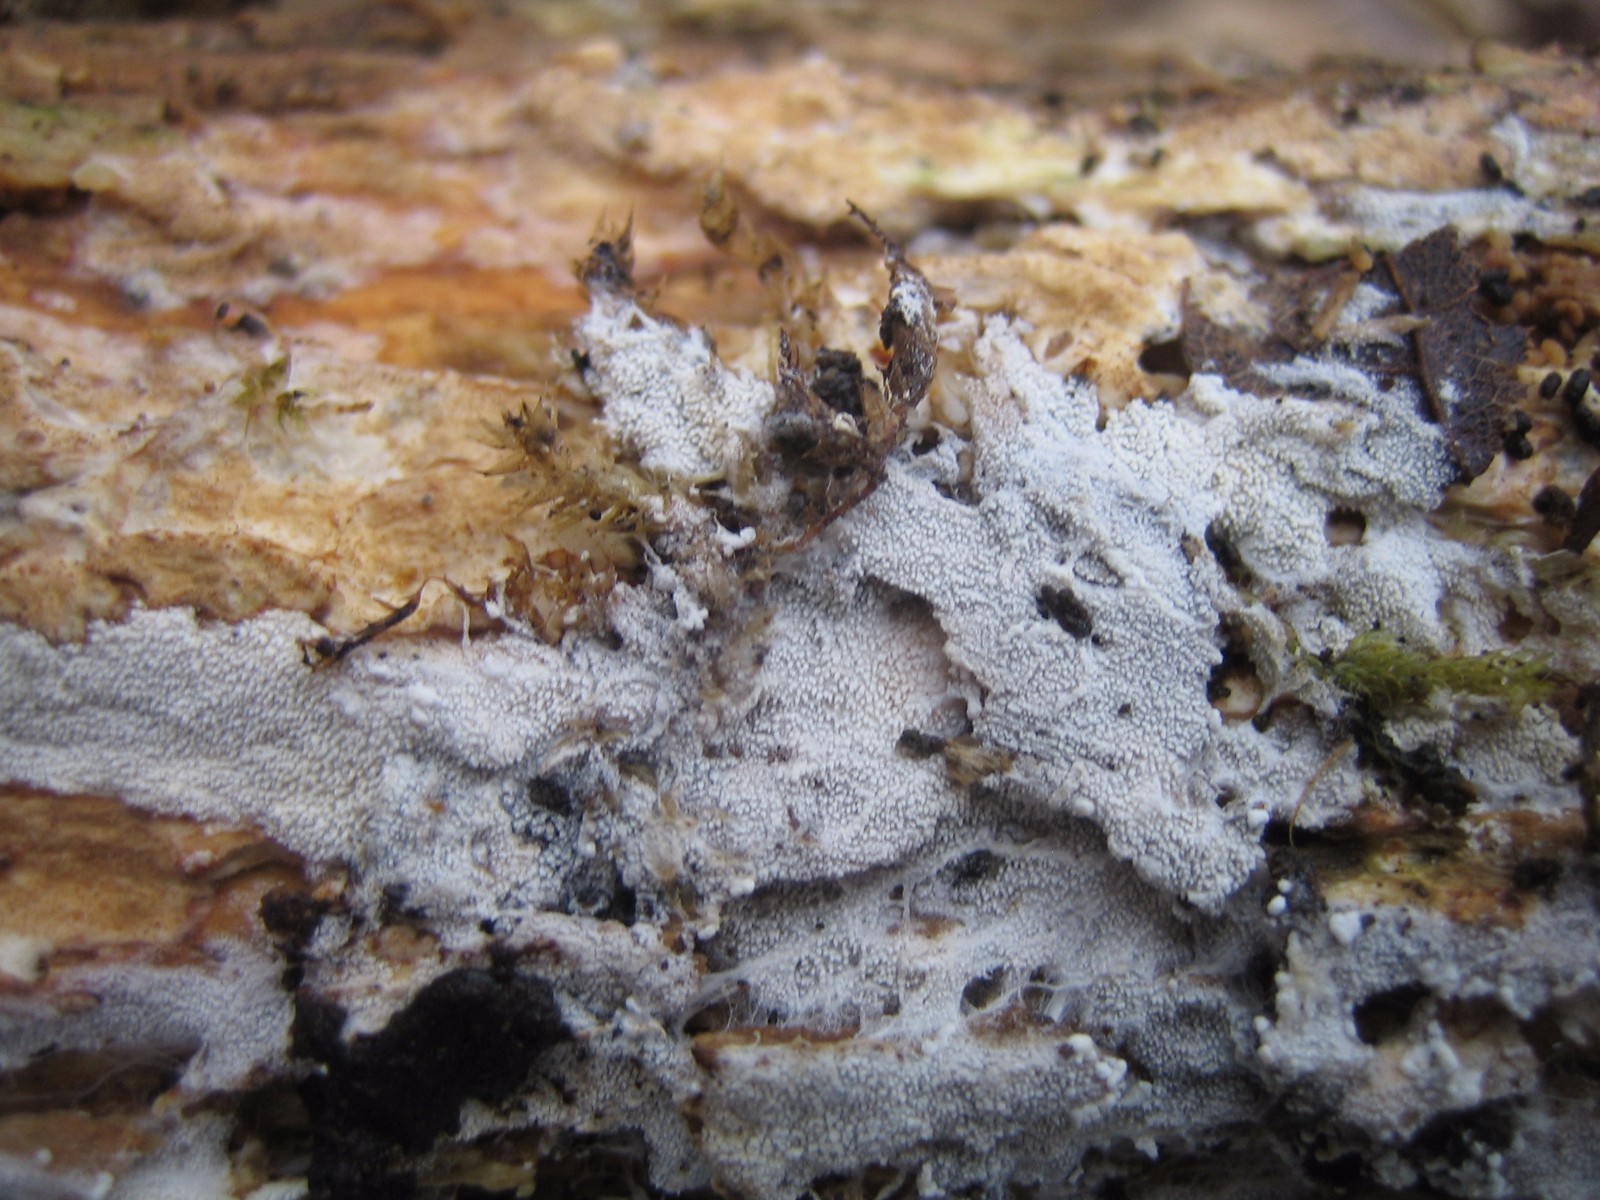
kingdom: Fungi
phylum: Basidiomycota
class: Agaricomycetes
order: Corticiales
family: Corticiaceae
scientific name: Corticiaceae
